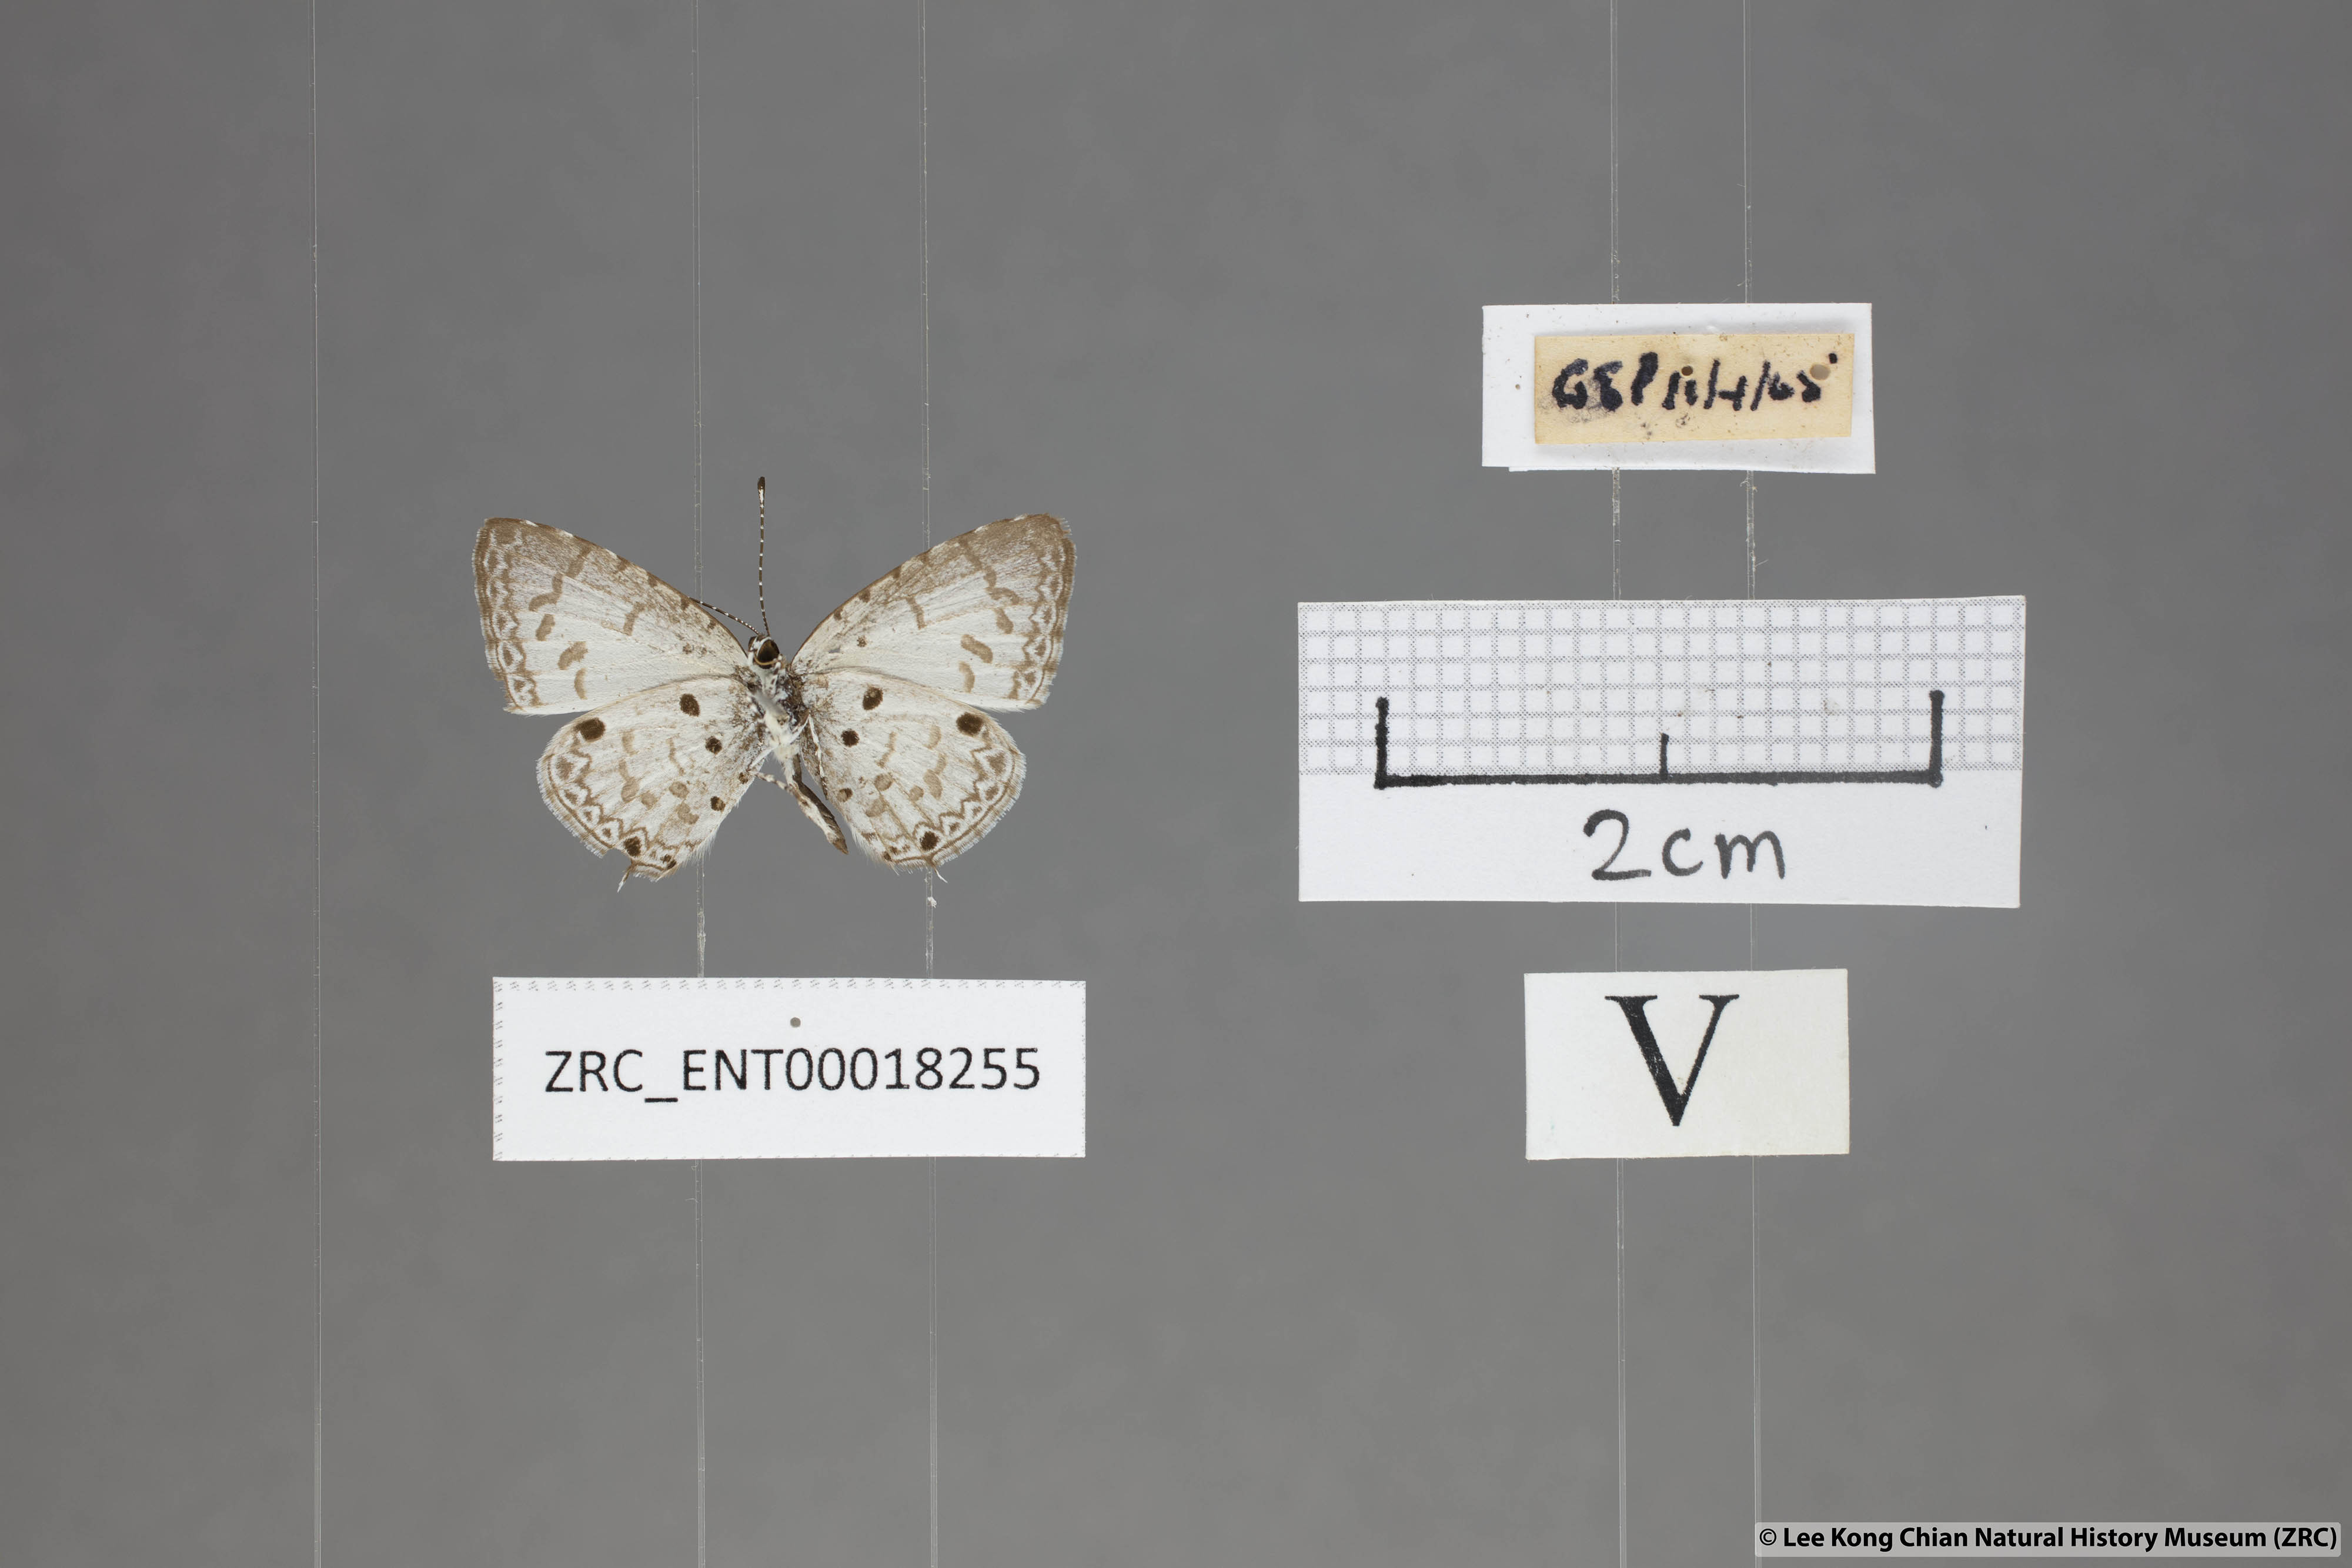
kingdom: Animalia
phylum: Arthropoda
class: Insecta
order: Lepidoptera
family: Lycaenidae
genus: Megisba
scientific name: Megisba malaya
